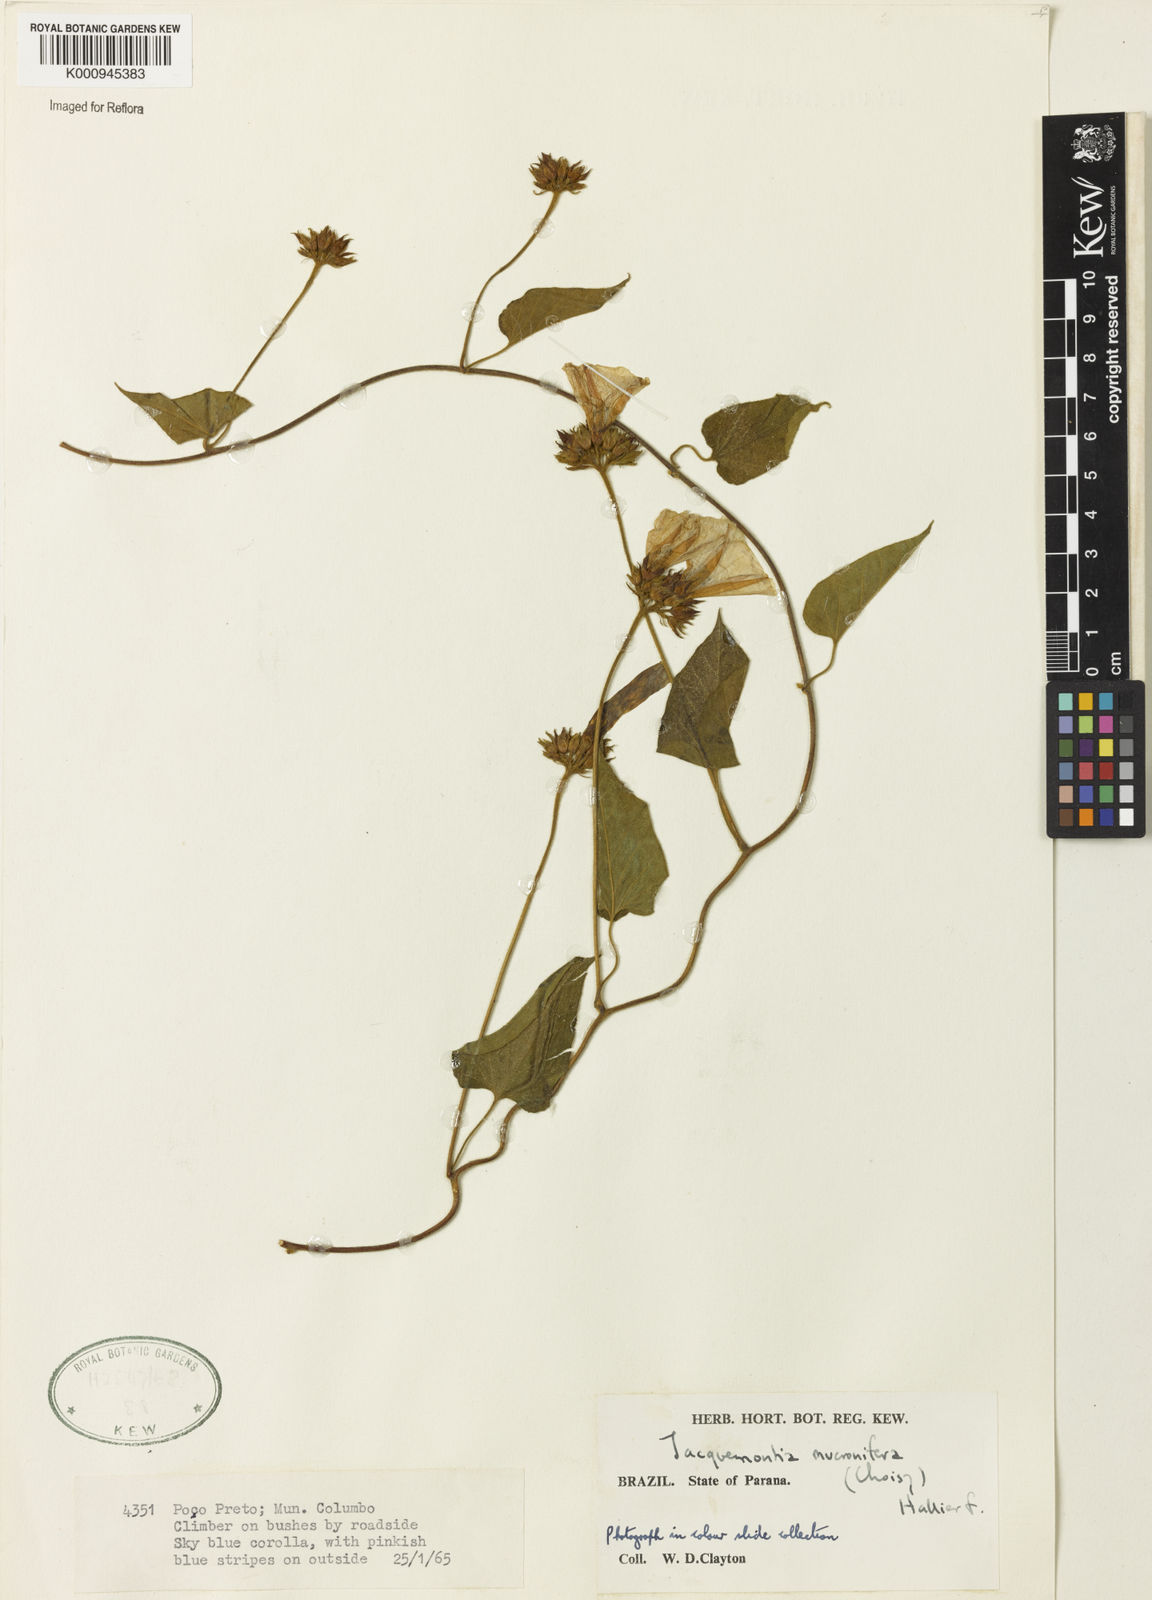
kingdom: Plantae
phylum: Tracheophyta
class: Magnoliopsida
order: Solanales
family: Convolvulaceae
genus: Jacquemontia
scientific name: Jacquemontia guyanensis
